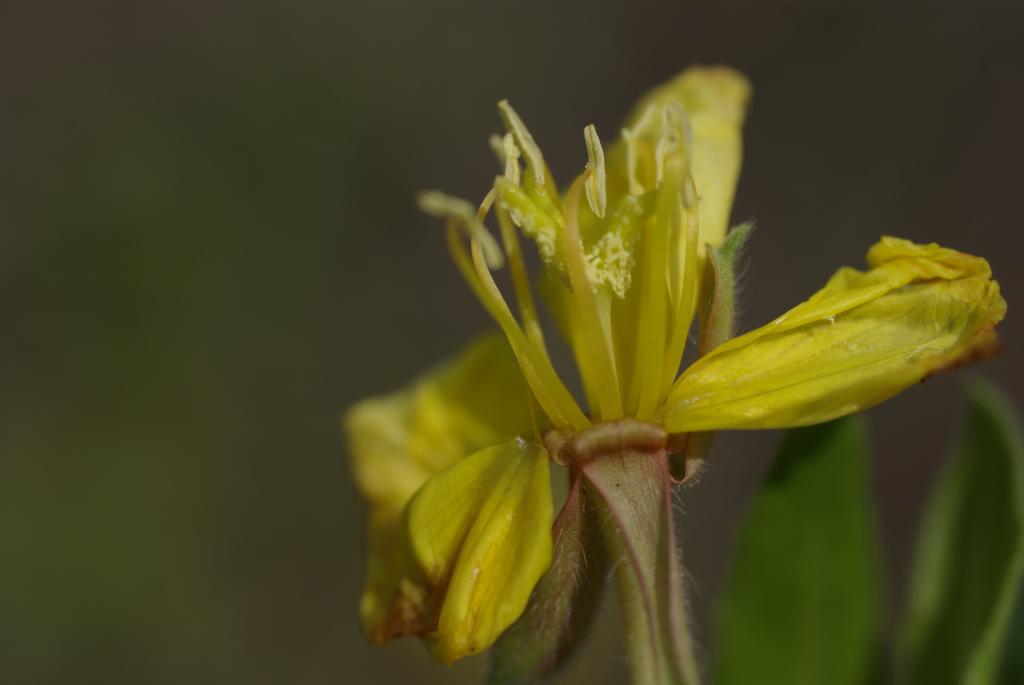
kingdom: Plantae
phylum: Tracheophyta
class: Magnoliopsida
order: Myrtales
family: Onagraceae
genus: Oenothera
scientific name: Oenothera laciniata
